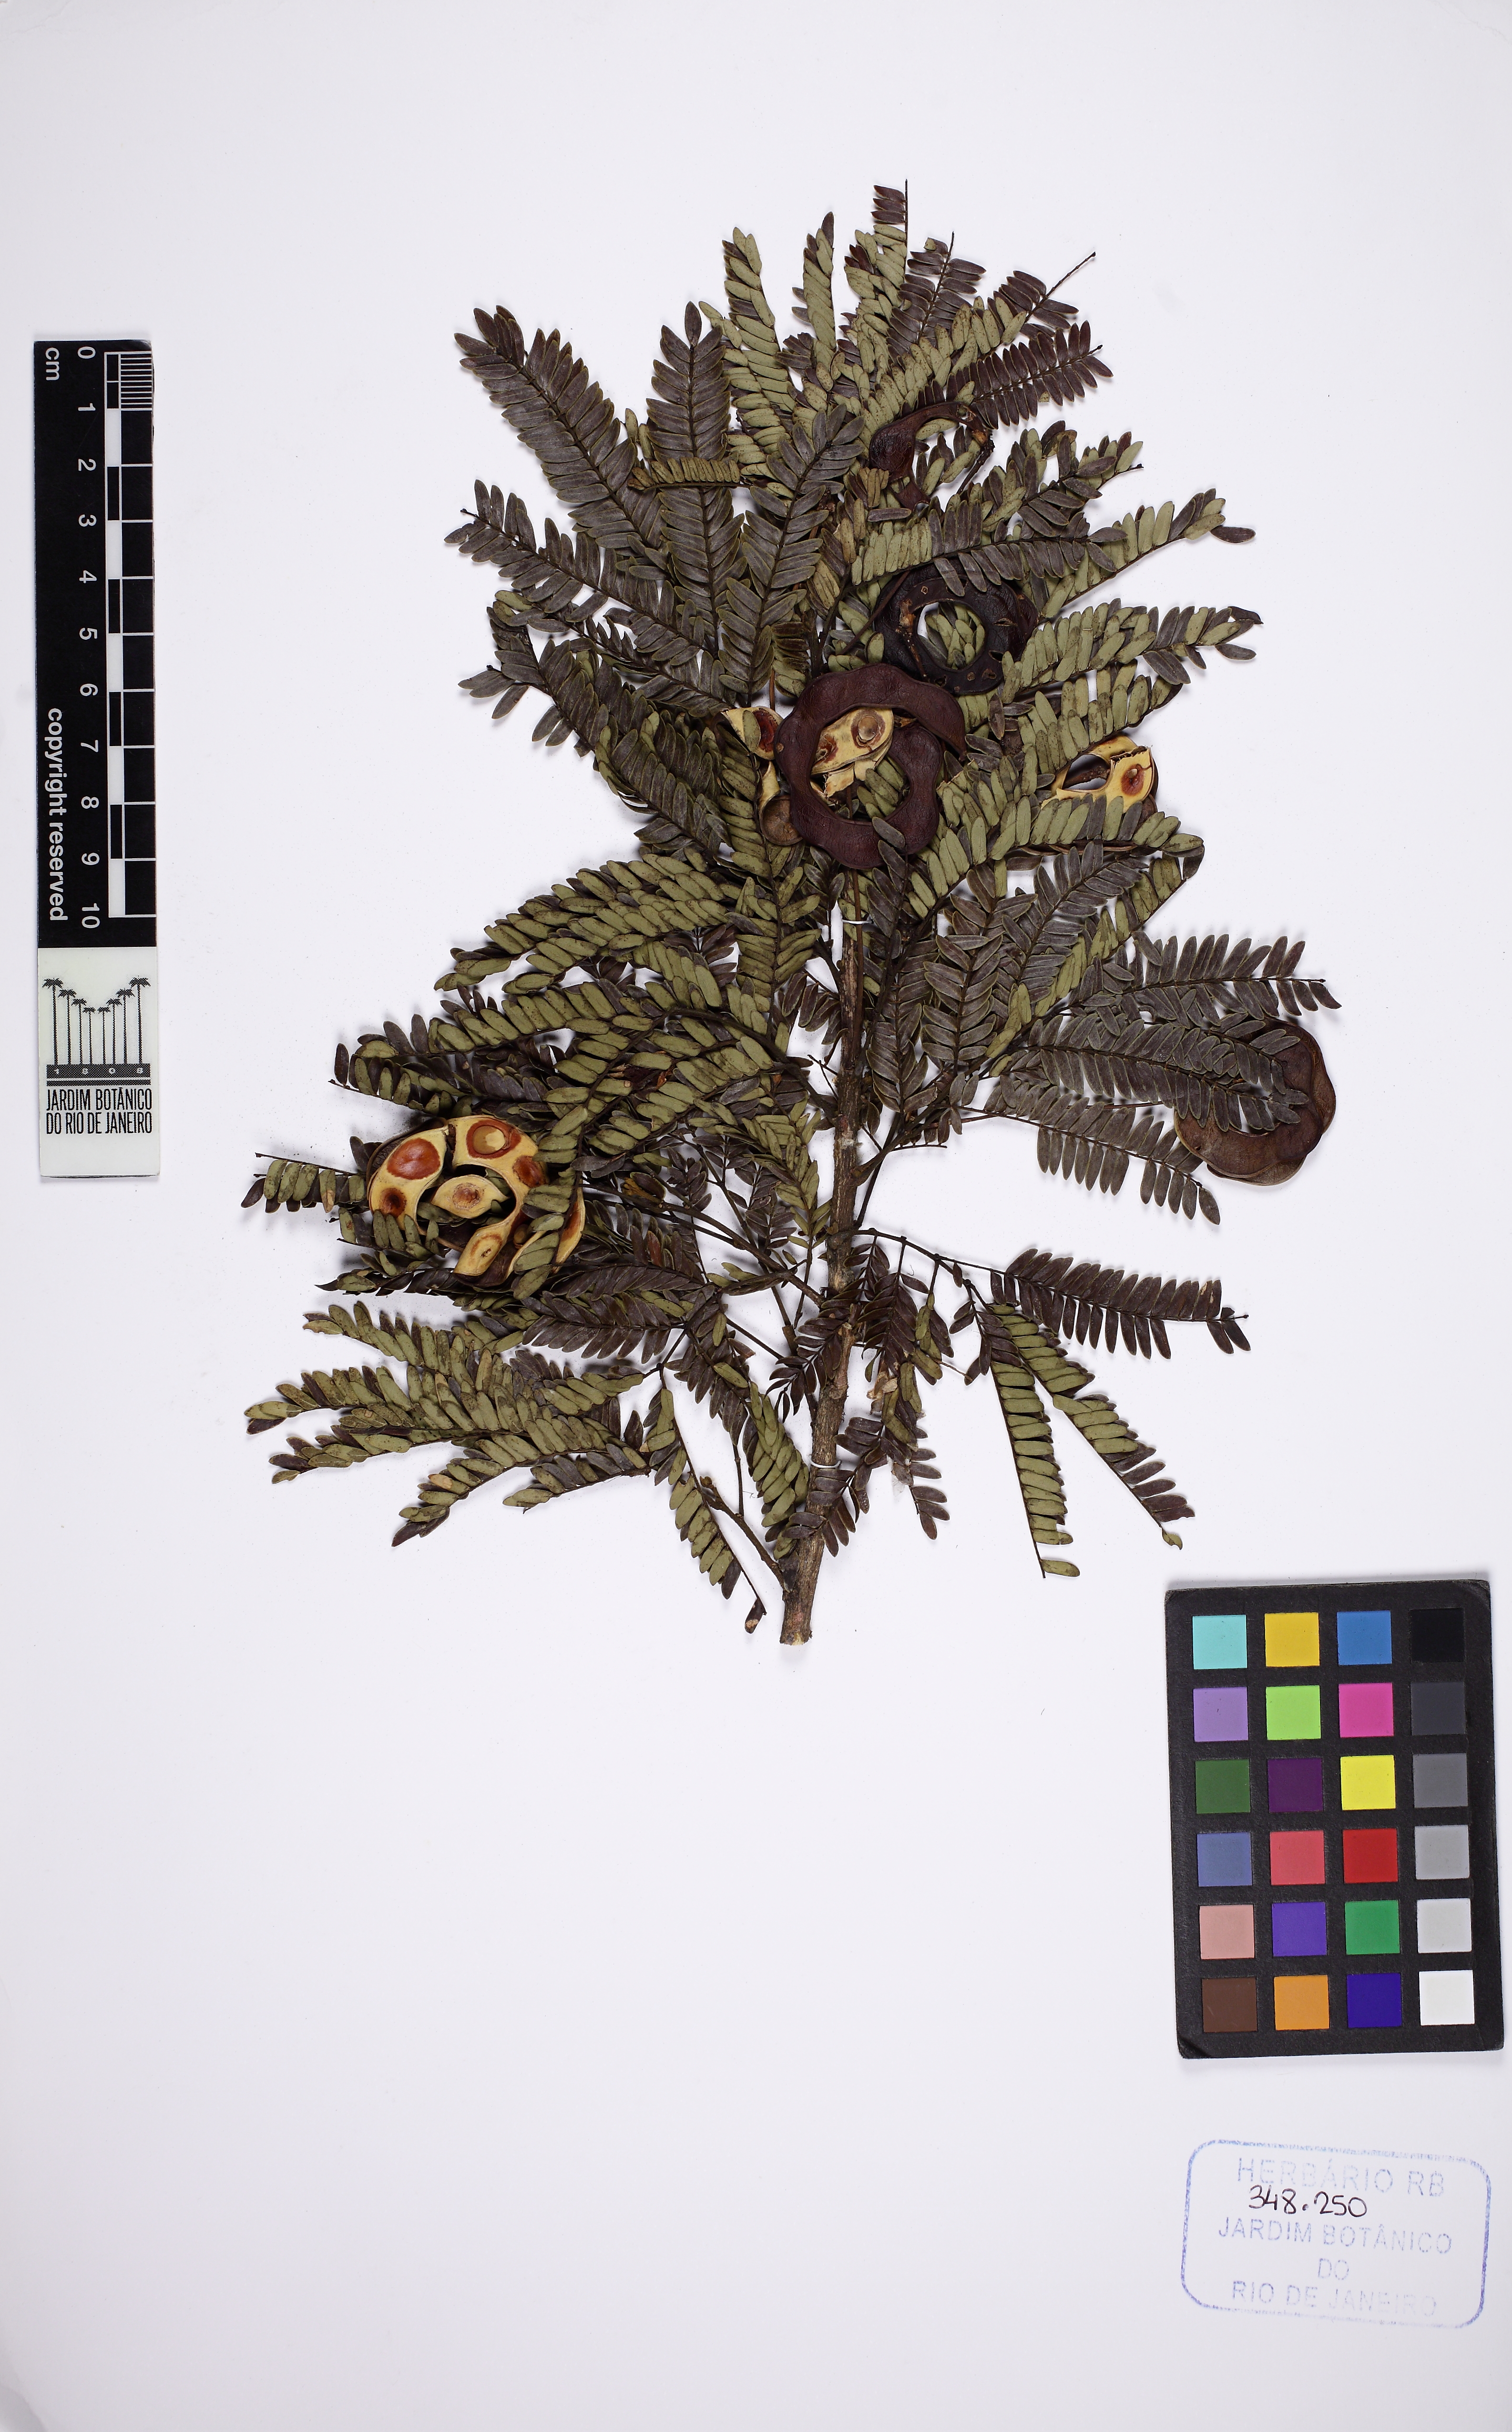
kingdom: Plantae
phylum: Tracheophyta
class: Magnoliopsida
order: Fabales
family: Fabaceae
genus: Jupunba
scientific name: Jupunba langsdorffii
